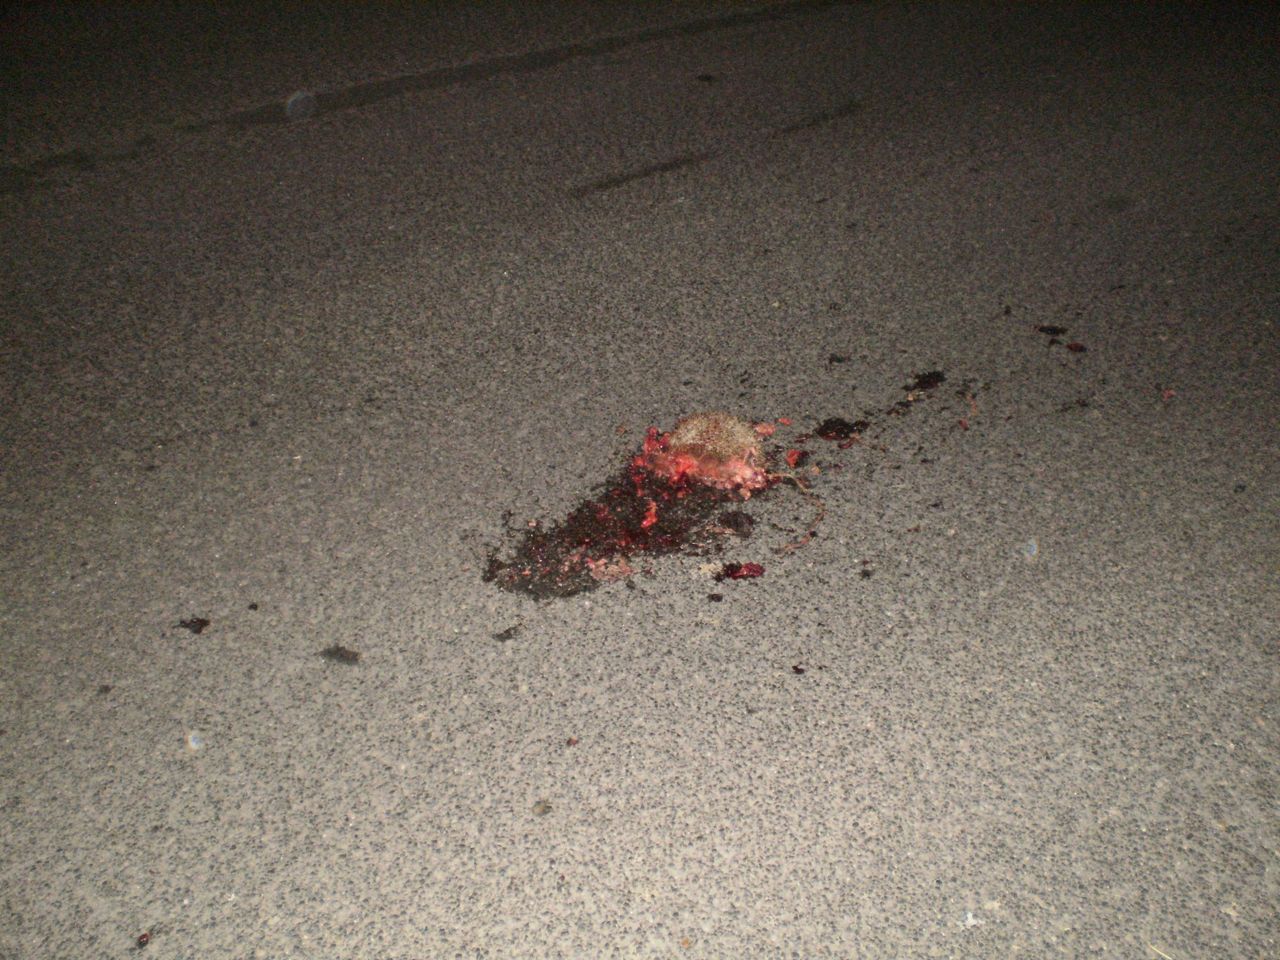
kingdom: Animalia
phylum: Chordata
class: Mammalia
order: Erinaceomorpha
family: Erinaceidae
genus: Erinaceus
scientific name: Erinaceus
